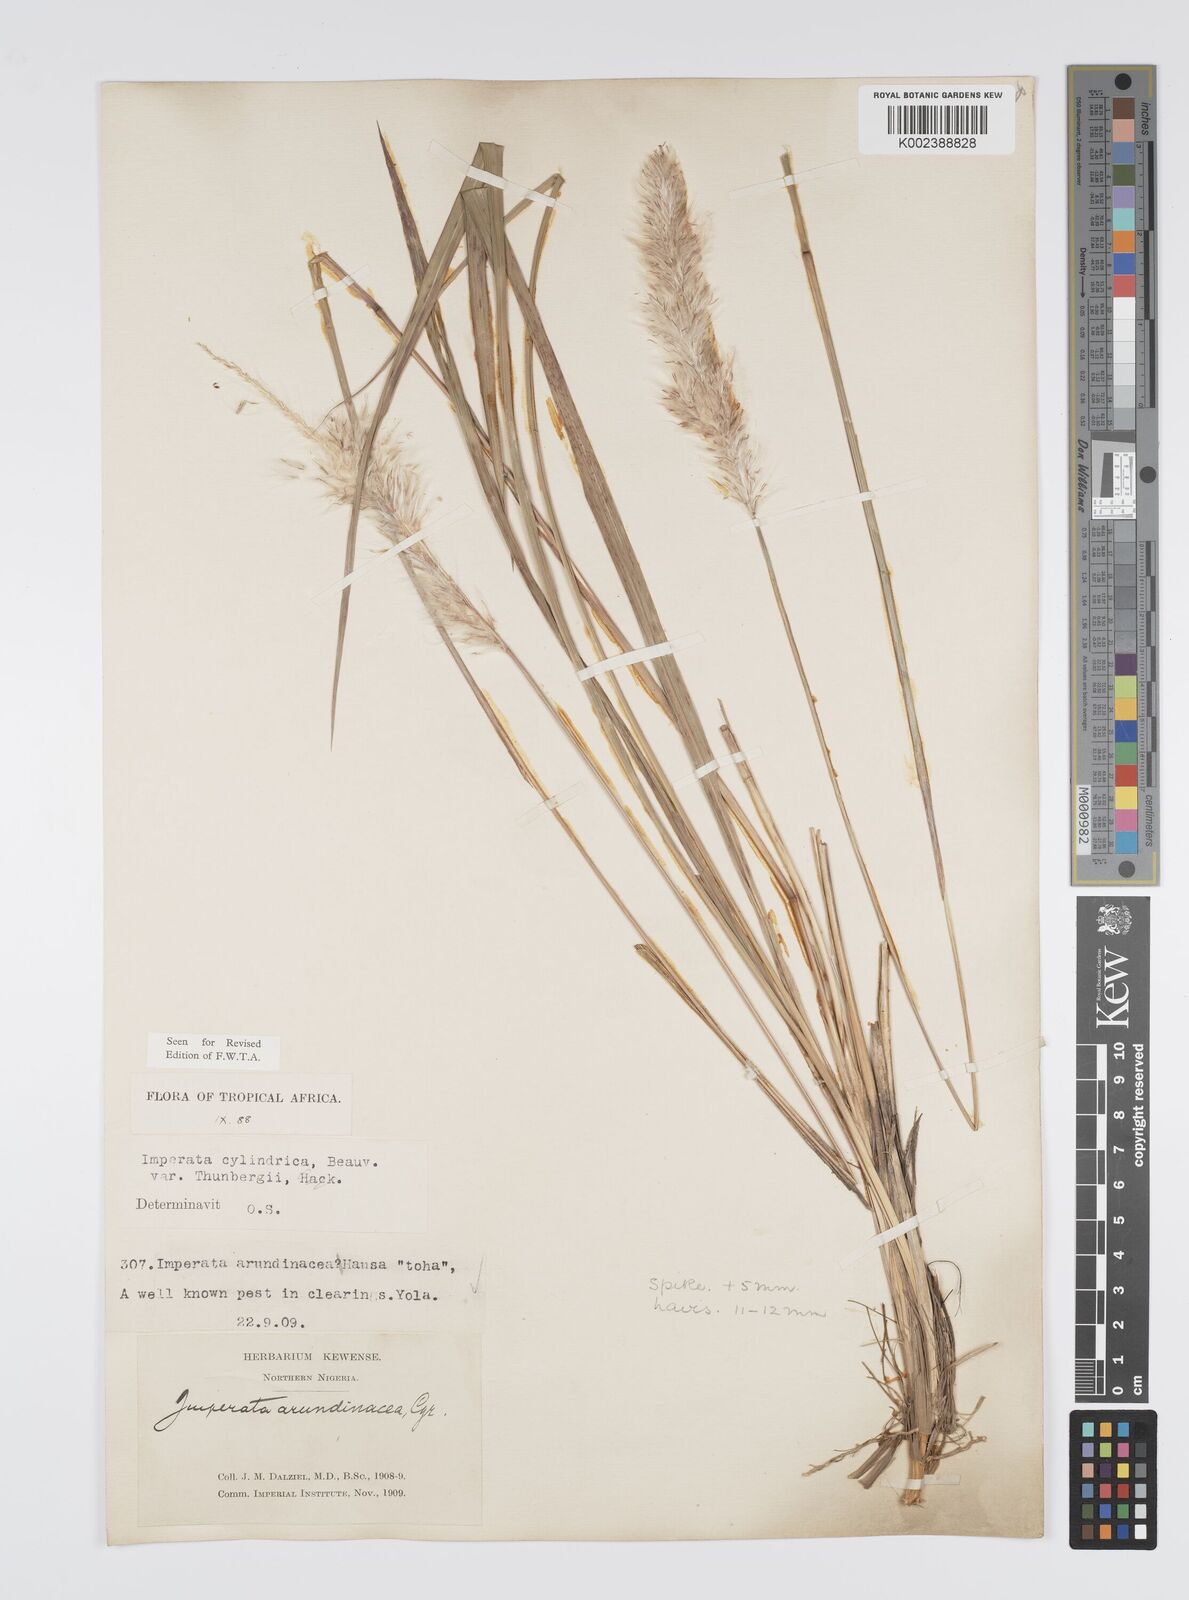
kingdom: Plantae
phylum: Tracheophyta
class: Liliopsida
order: Poales
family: Poaceae
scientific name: Poaceae
